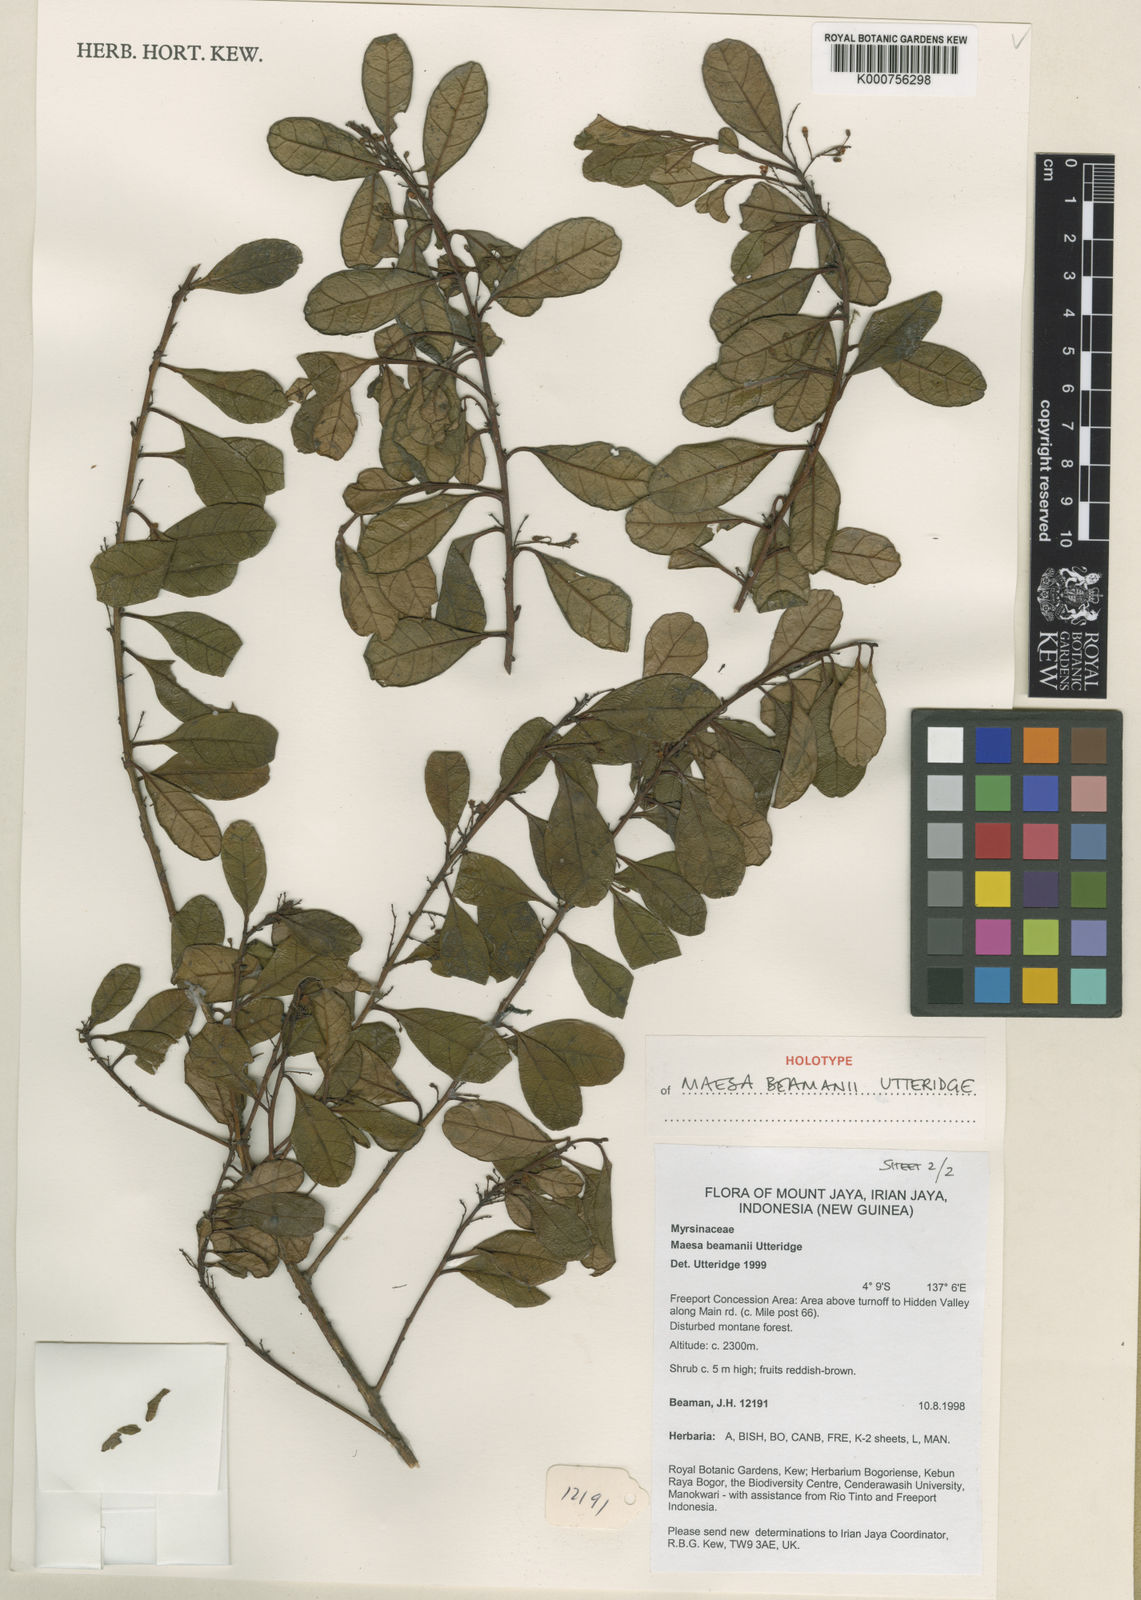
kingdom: Plantae
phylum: Tracheophyta
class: Magnoliopsida
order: Ericales
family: Primulaceae
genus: Maesa
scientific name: Maesa beamanii
